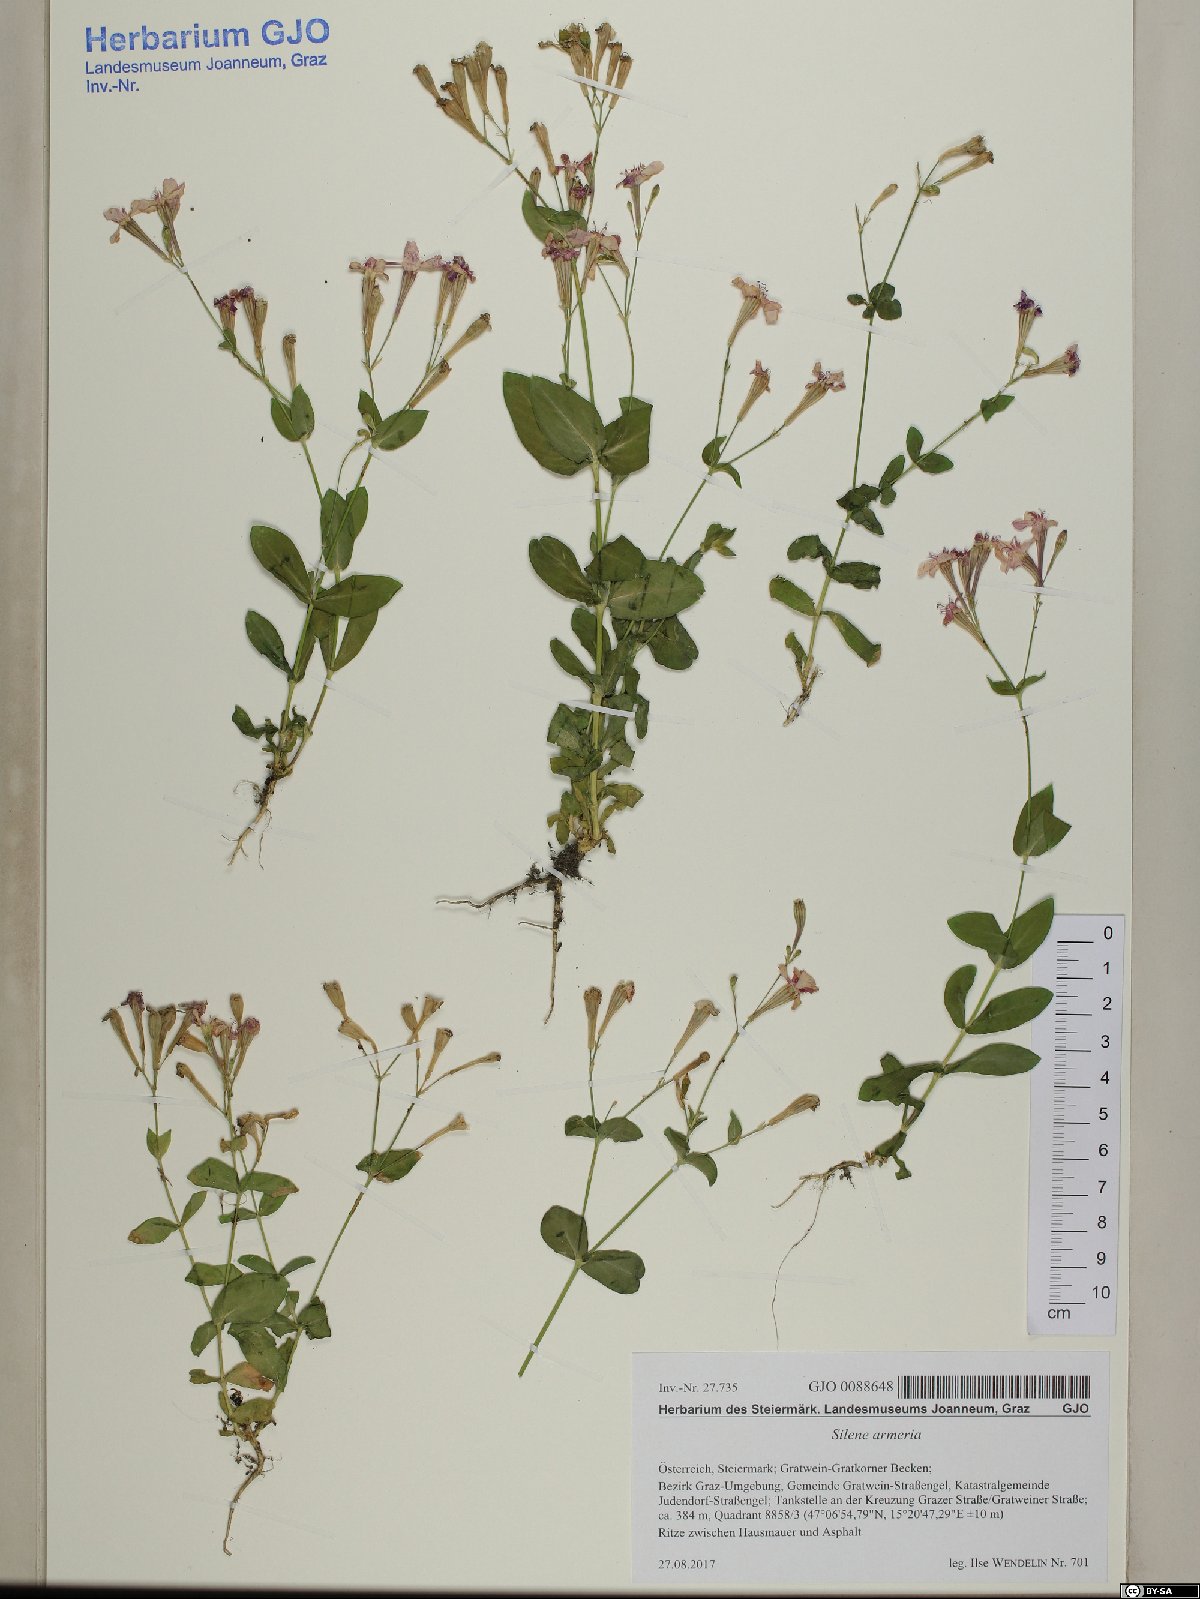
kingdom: Plantae
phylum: Tracheophyta
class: Magnoliopsida
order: Caryophyllales
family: Caryophyllaceae
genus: Atocion
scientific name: Atocion armeria
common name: Sweet william catchfly
